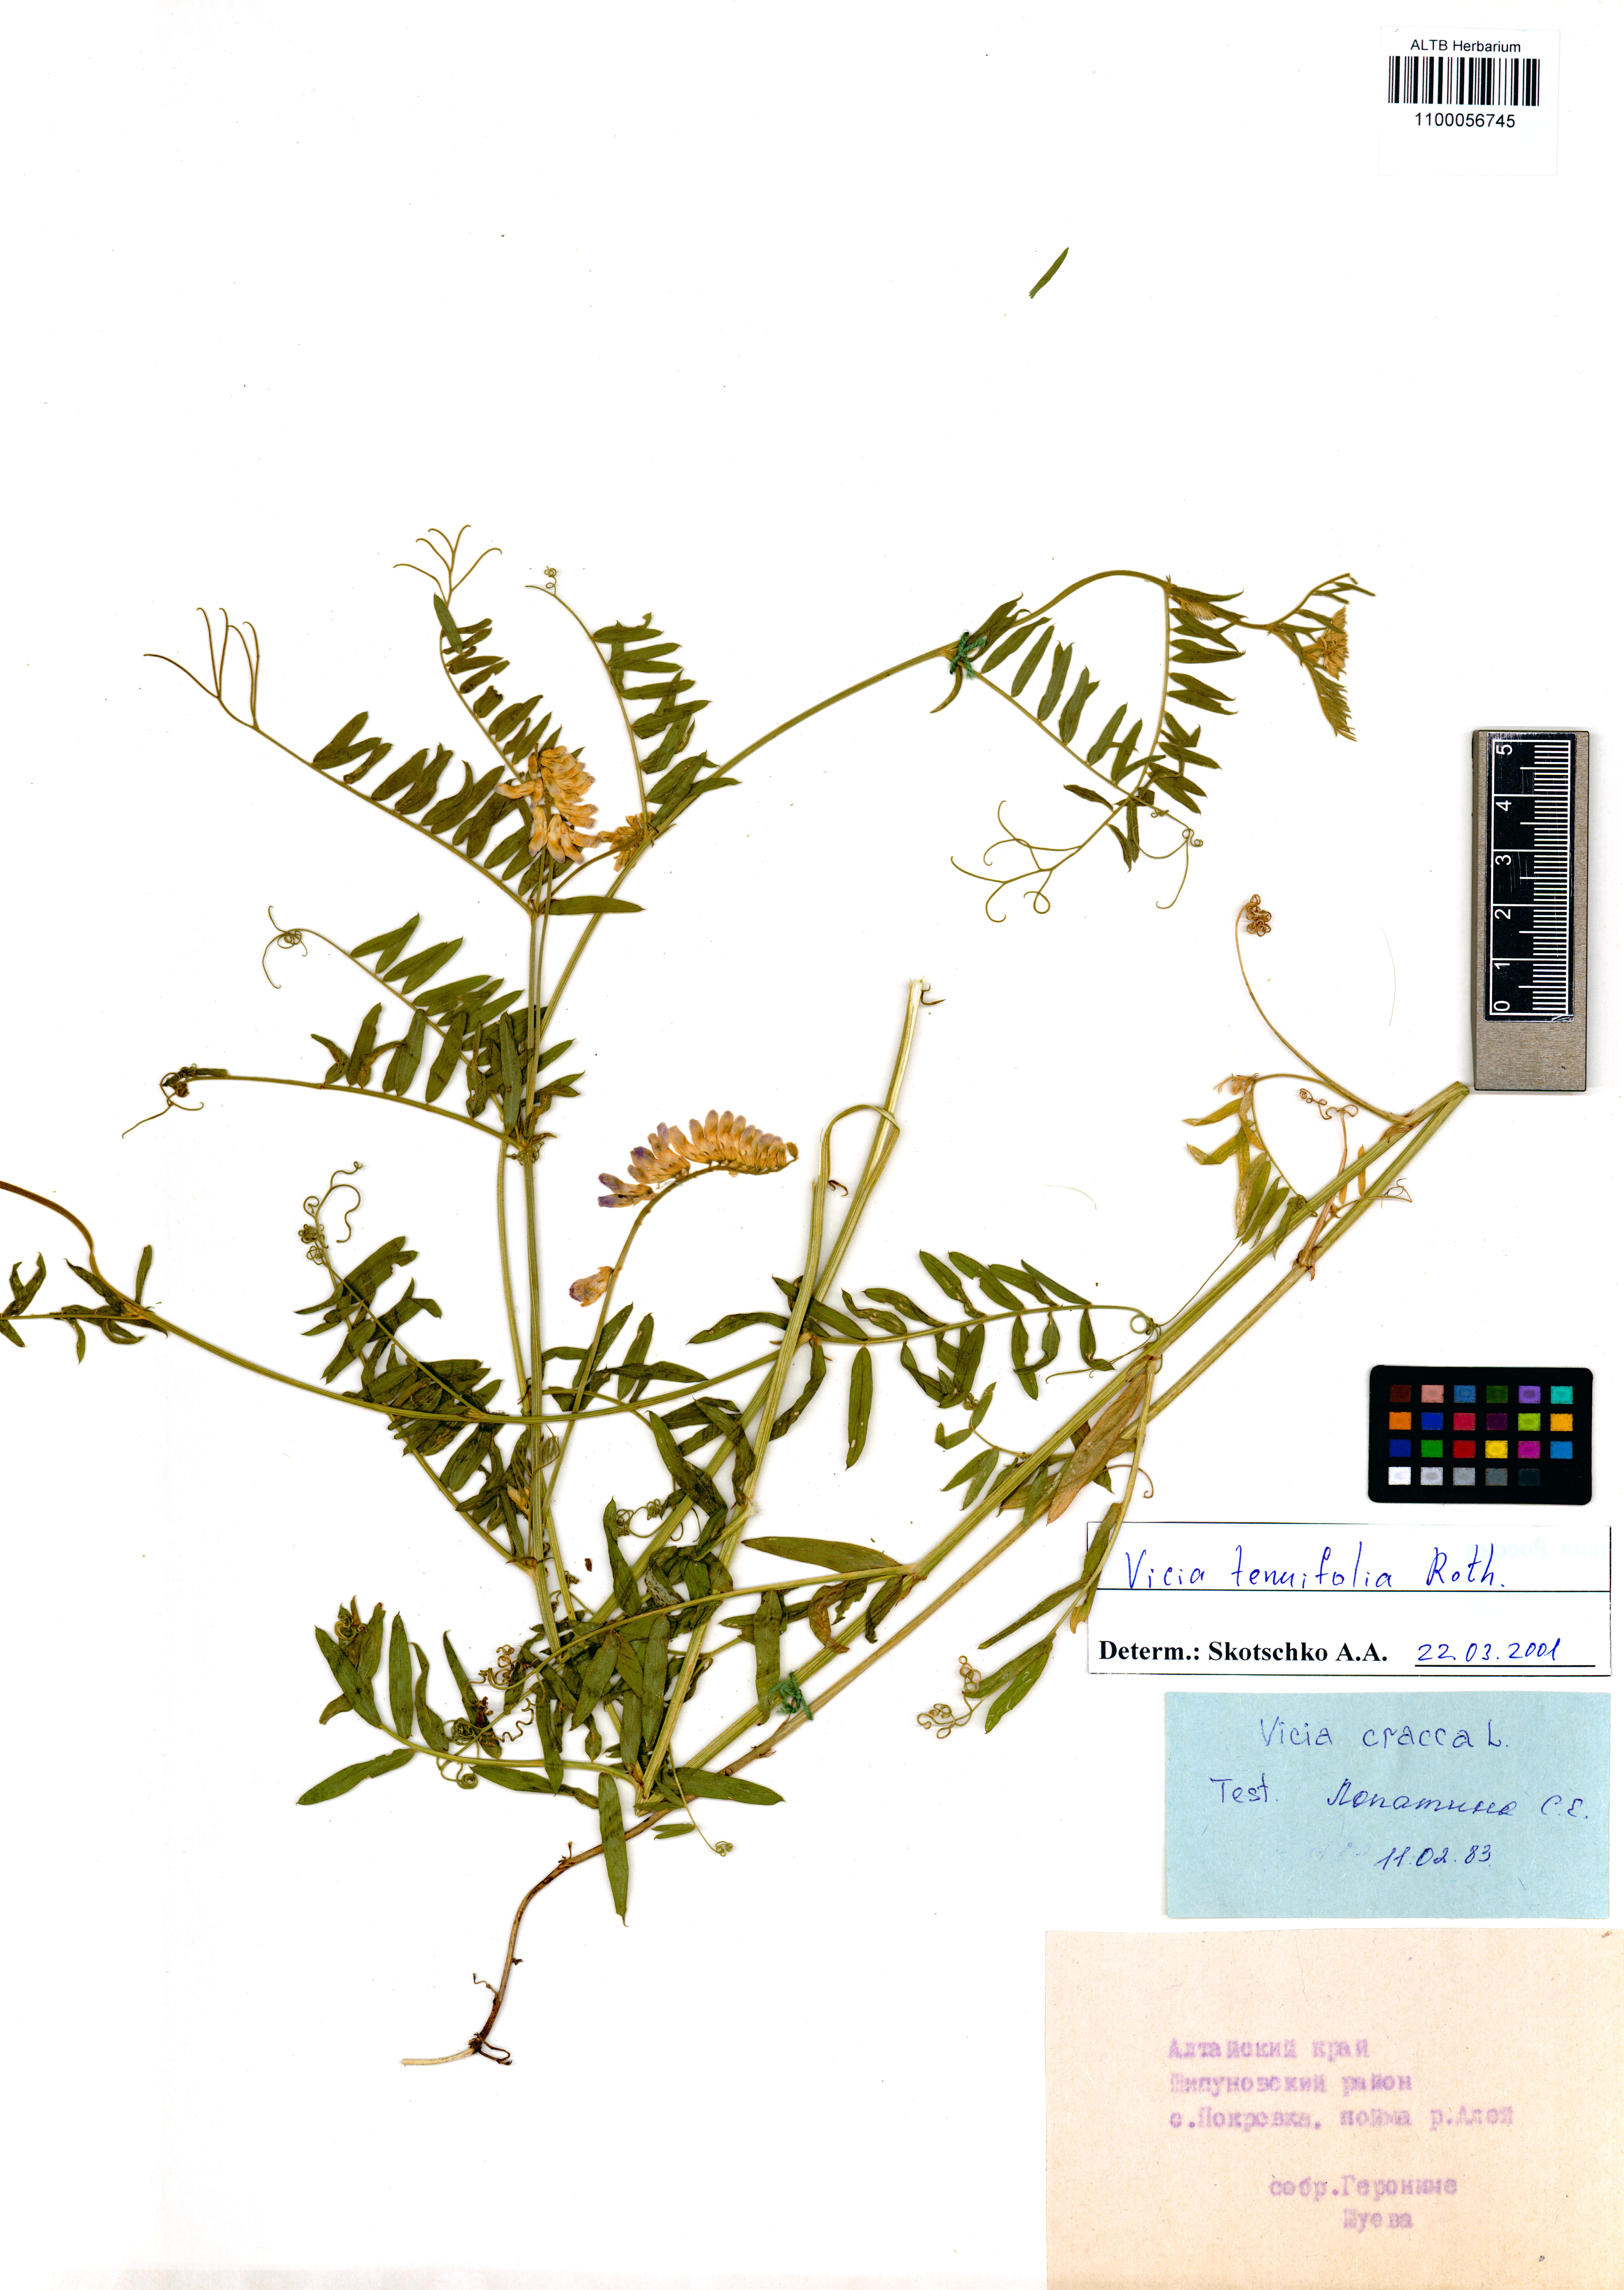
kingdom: Plantae
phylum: Tracheophyta
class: Magnoliopsida
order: Fabales
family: Fabaceae
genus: Vicia
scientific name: Vicia tenuifolia
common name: Fine-leaved vetch
